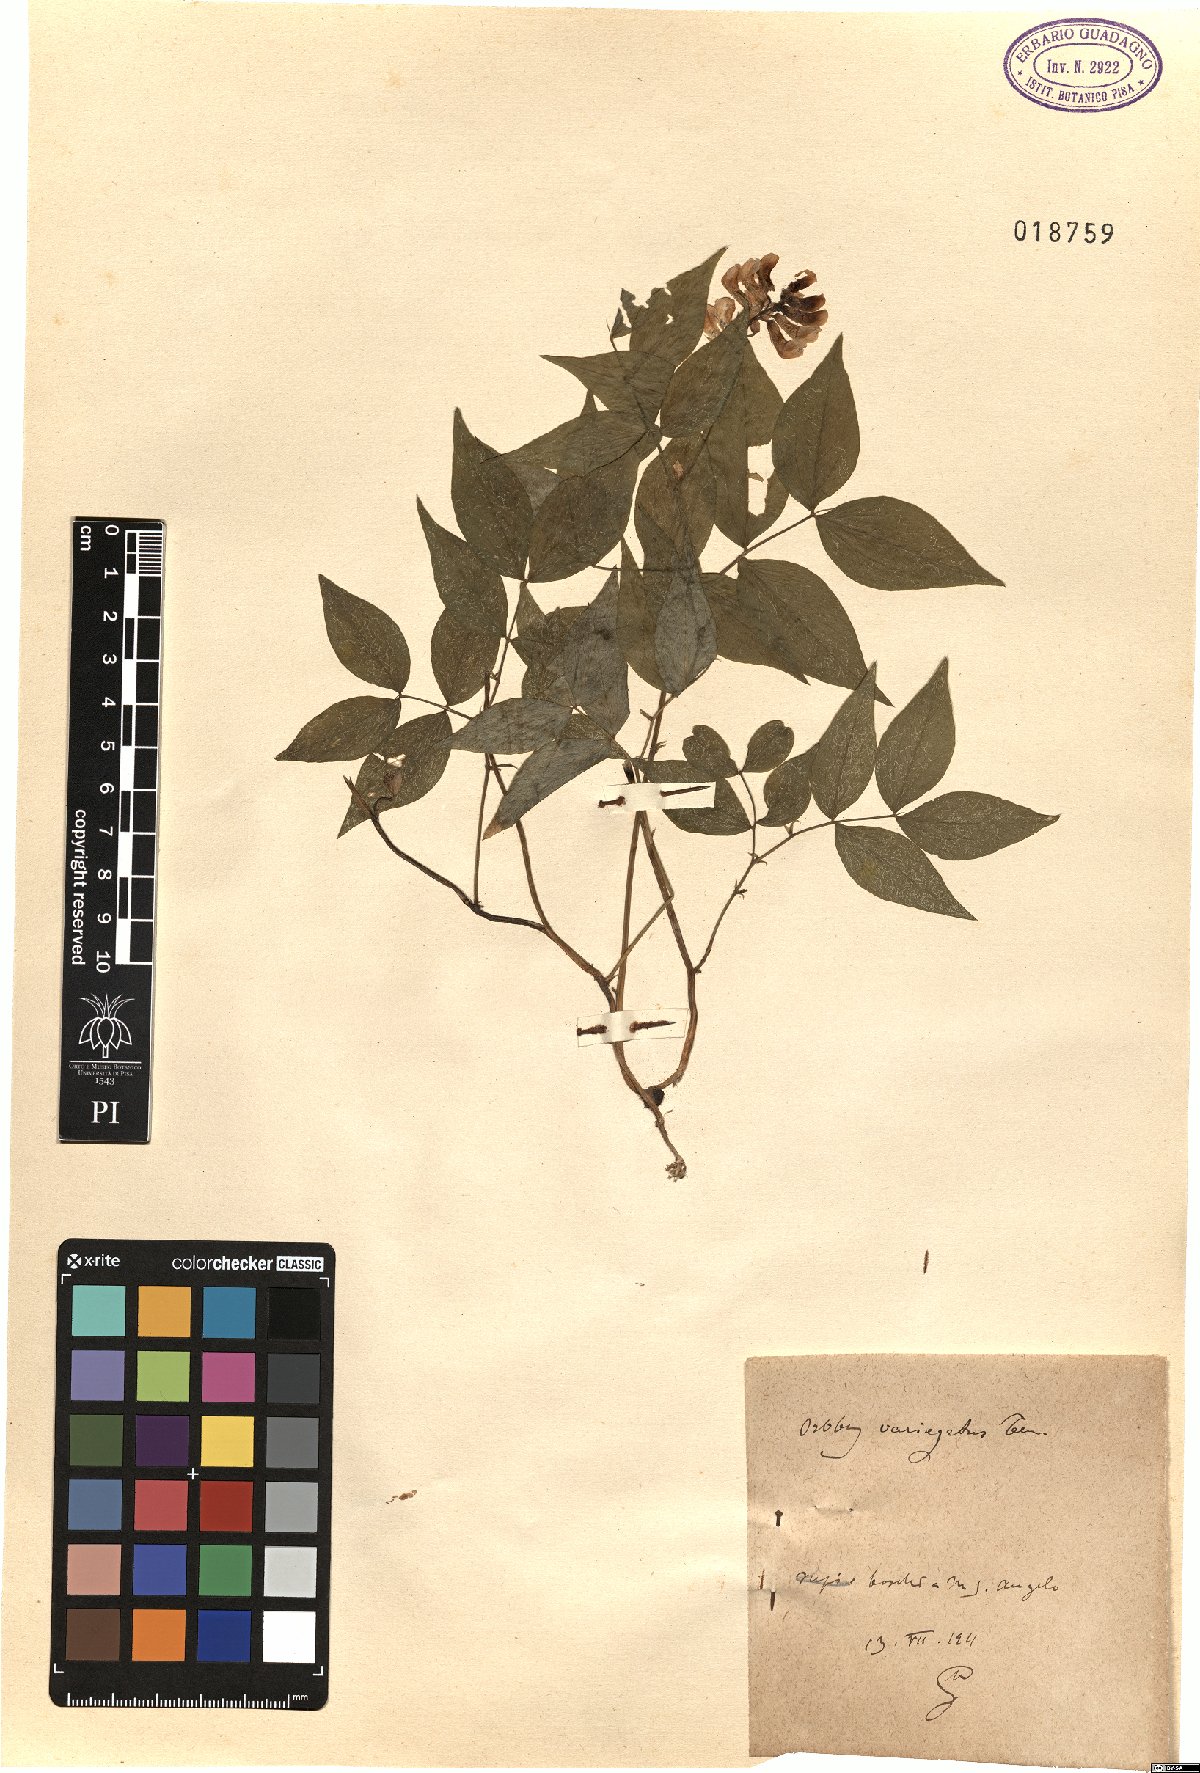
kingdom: Plantae
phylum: Tracheophyta
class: Magnoliopsida
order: Fabales
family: Fabaceae
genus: Lathyrus
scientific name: Lathyrus venetus
